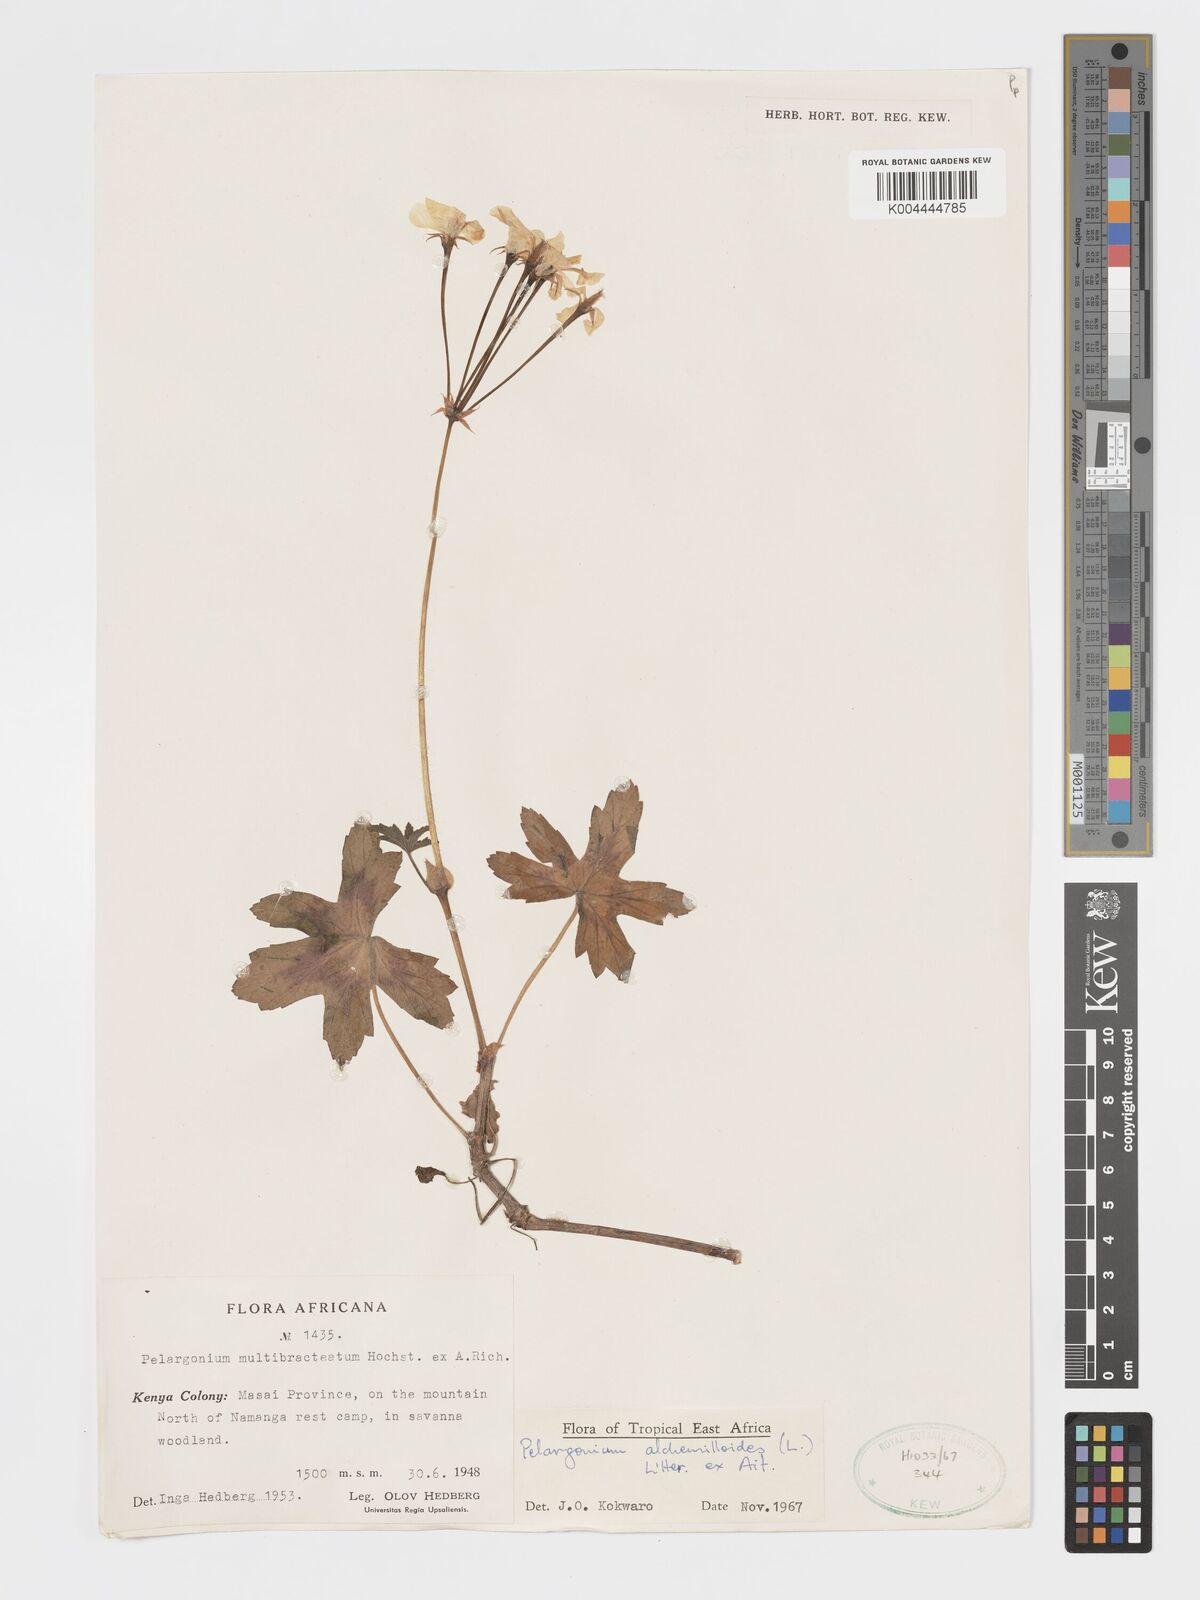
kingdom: Plantae
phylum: Tracheophyta
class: Magnoliopsida
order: Geraniales
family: Geraniaceae
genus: Pelargonium
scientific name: Pelargonium alchemilloides
